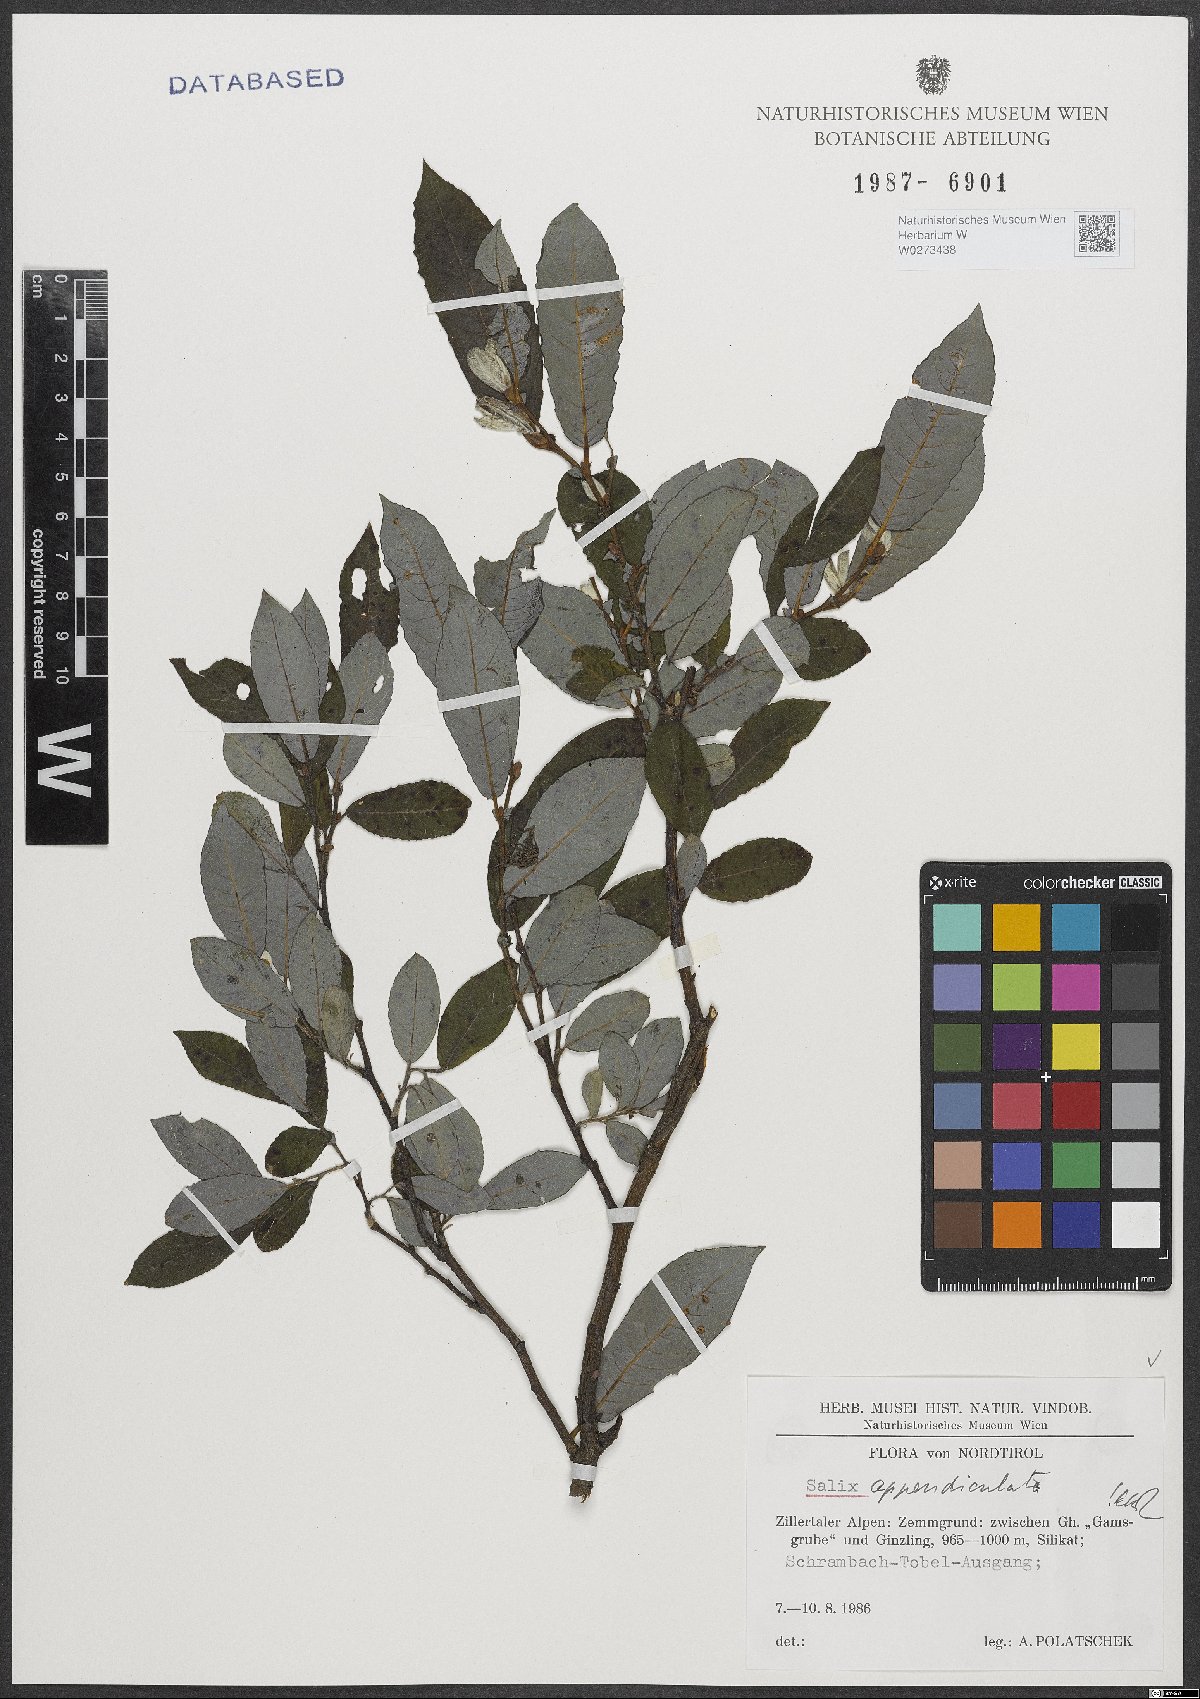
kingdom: Plantae
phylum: Tracheophyta
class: Magnoliopsida
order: Malpighiales
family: Salicaceae
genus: Salix
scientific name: Salix appendiculata
